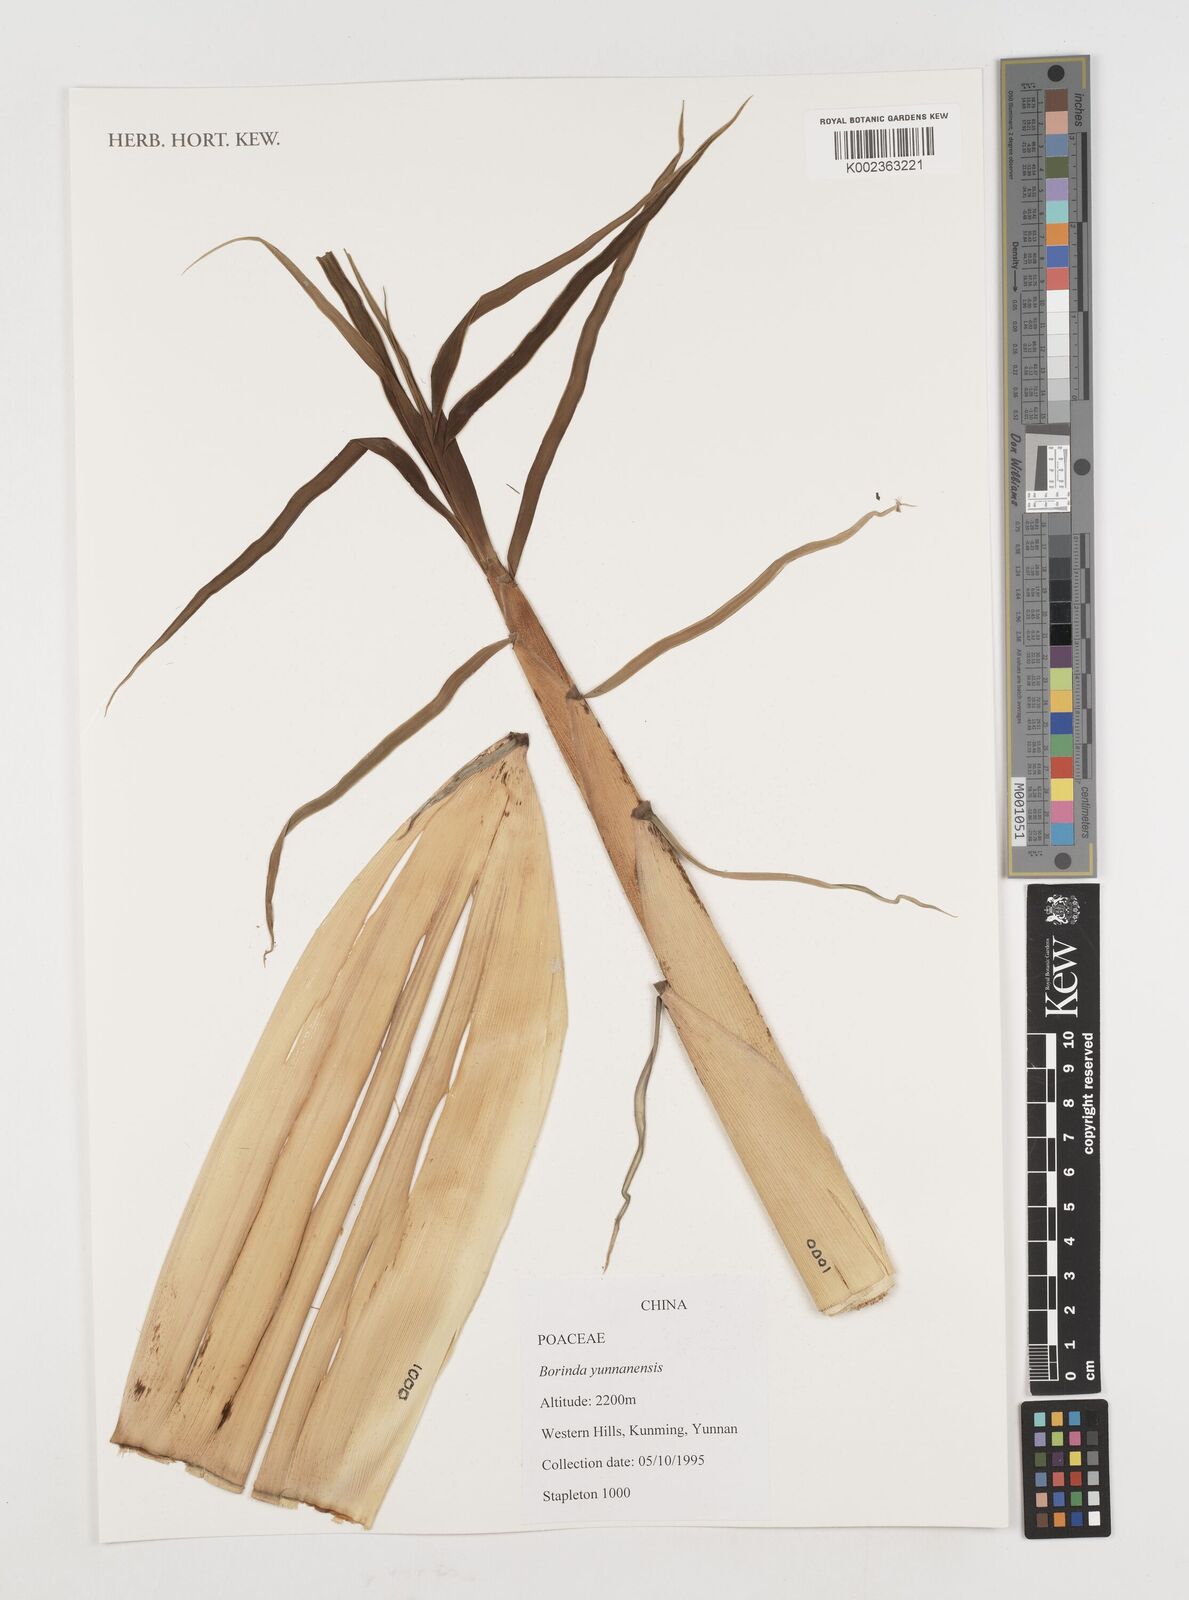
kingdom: Plantae
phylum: Tracheophyta
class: Liliopsida
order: Poales
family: Poaceae
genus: Fargesia
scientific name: Fargesia yunnanensis
